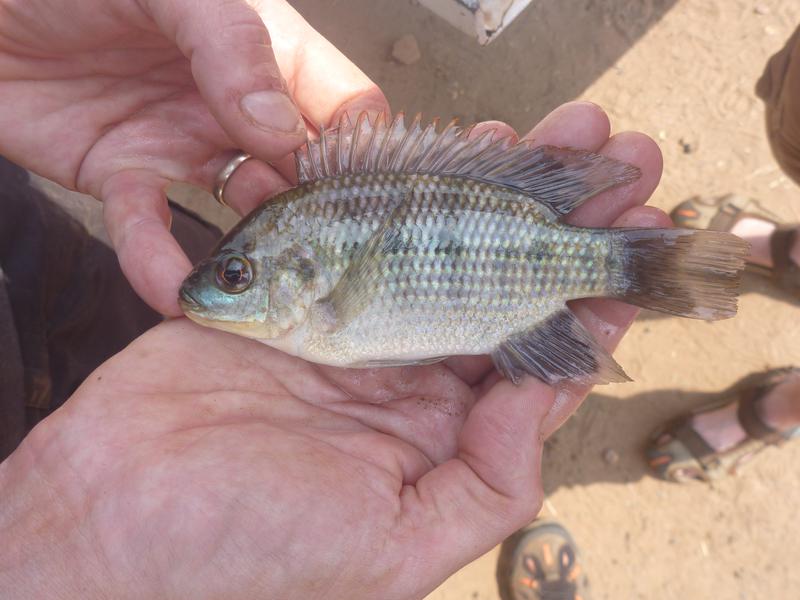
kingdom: Animalia
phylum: Chordata
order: Perciformes
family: Cichlidae
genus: Oreochromis
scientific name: Oreochromis upembae
